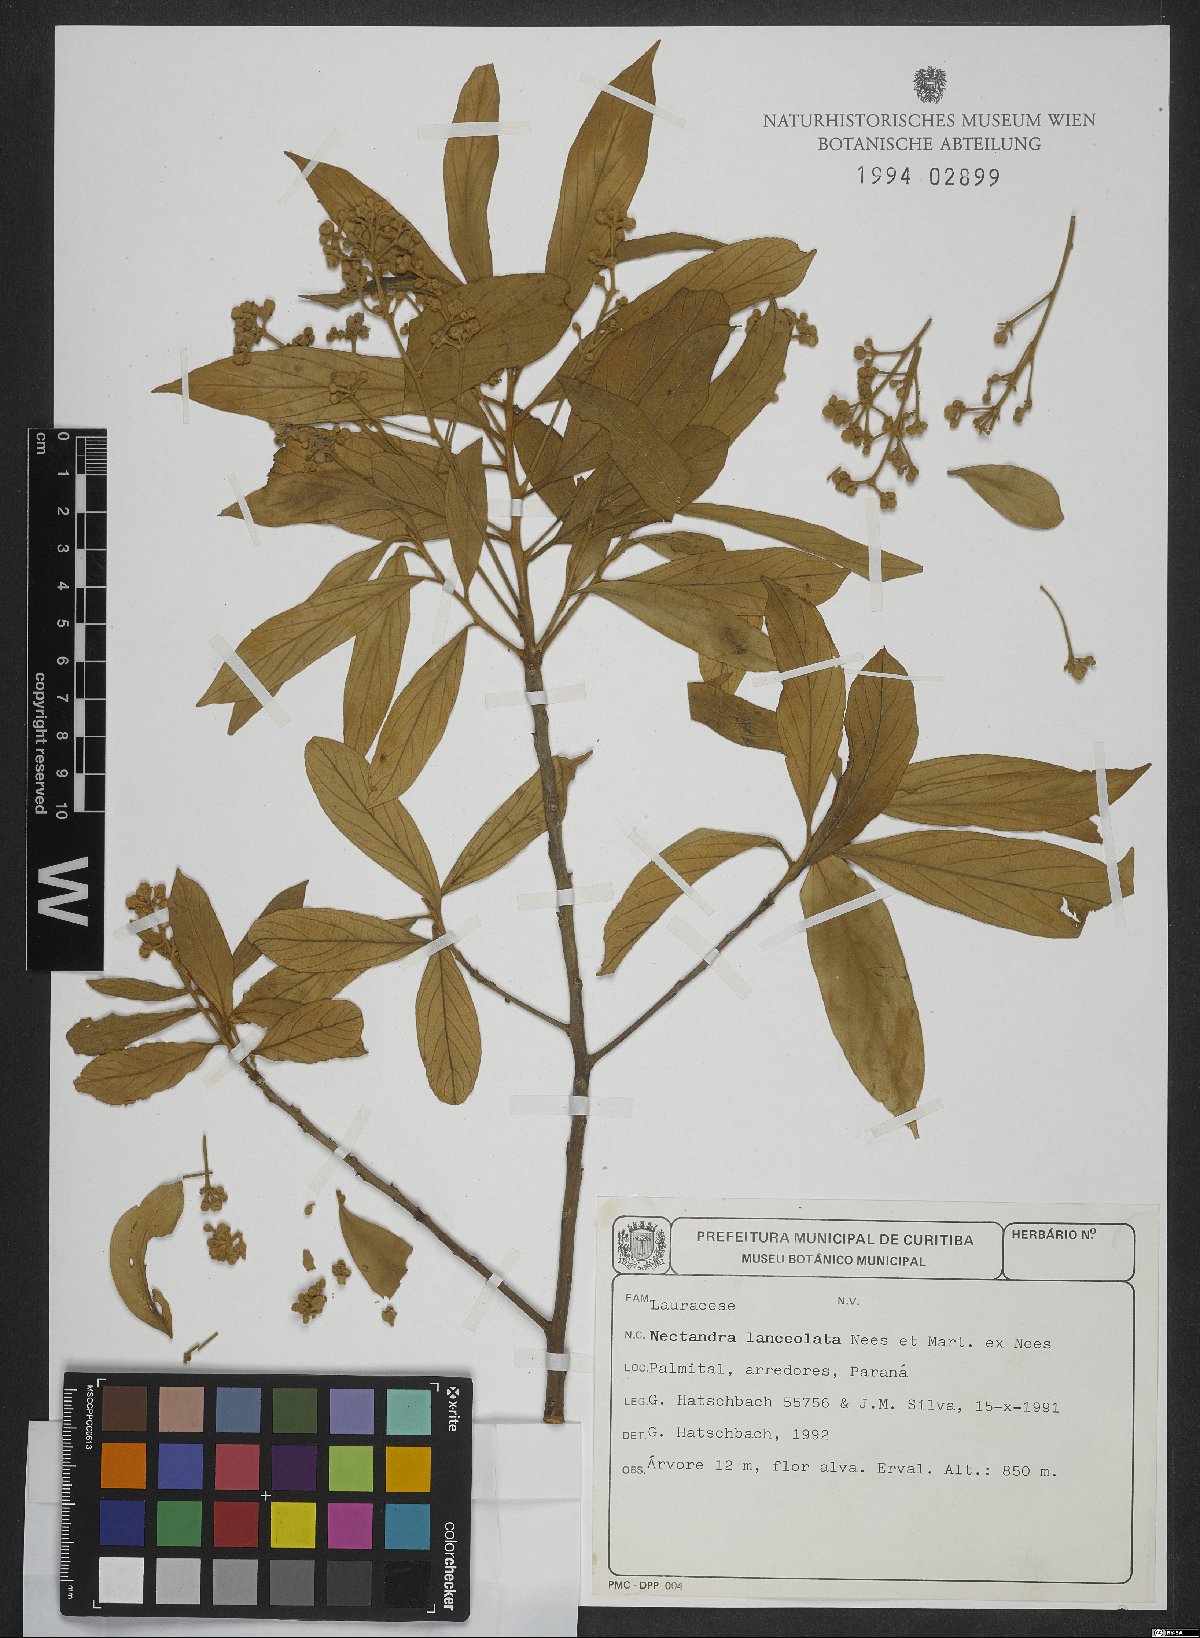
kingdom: Plantae
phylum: Tracheophyta
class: Magnoliopsida
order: Laurales
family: Lauraceae
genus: Nectandra
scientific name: Nectandra lanceolata
